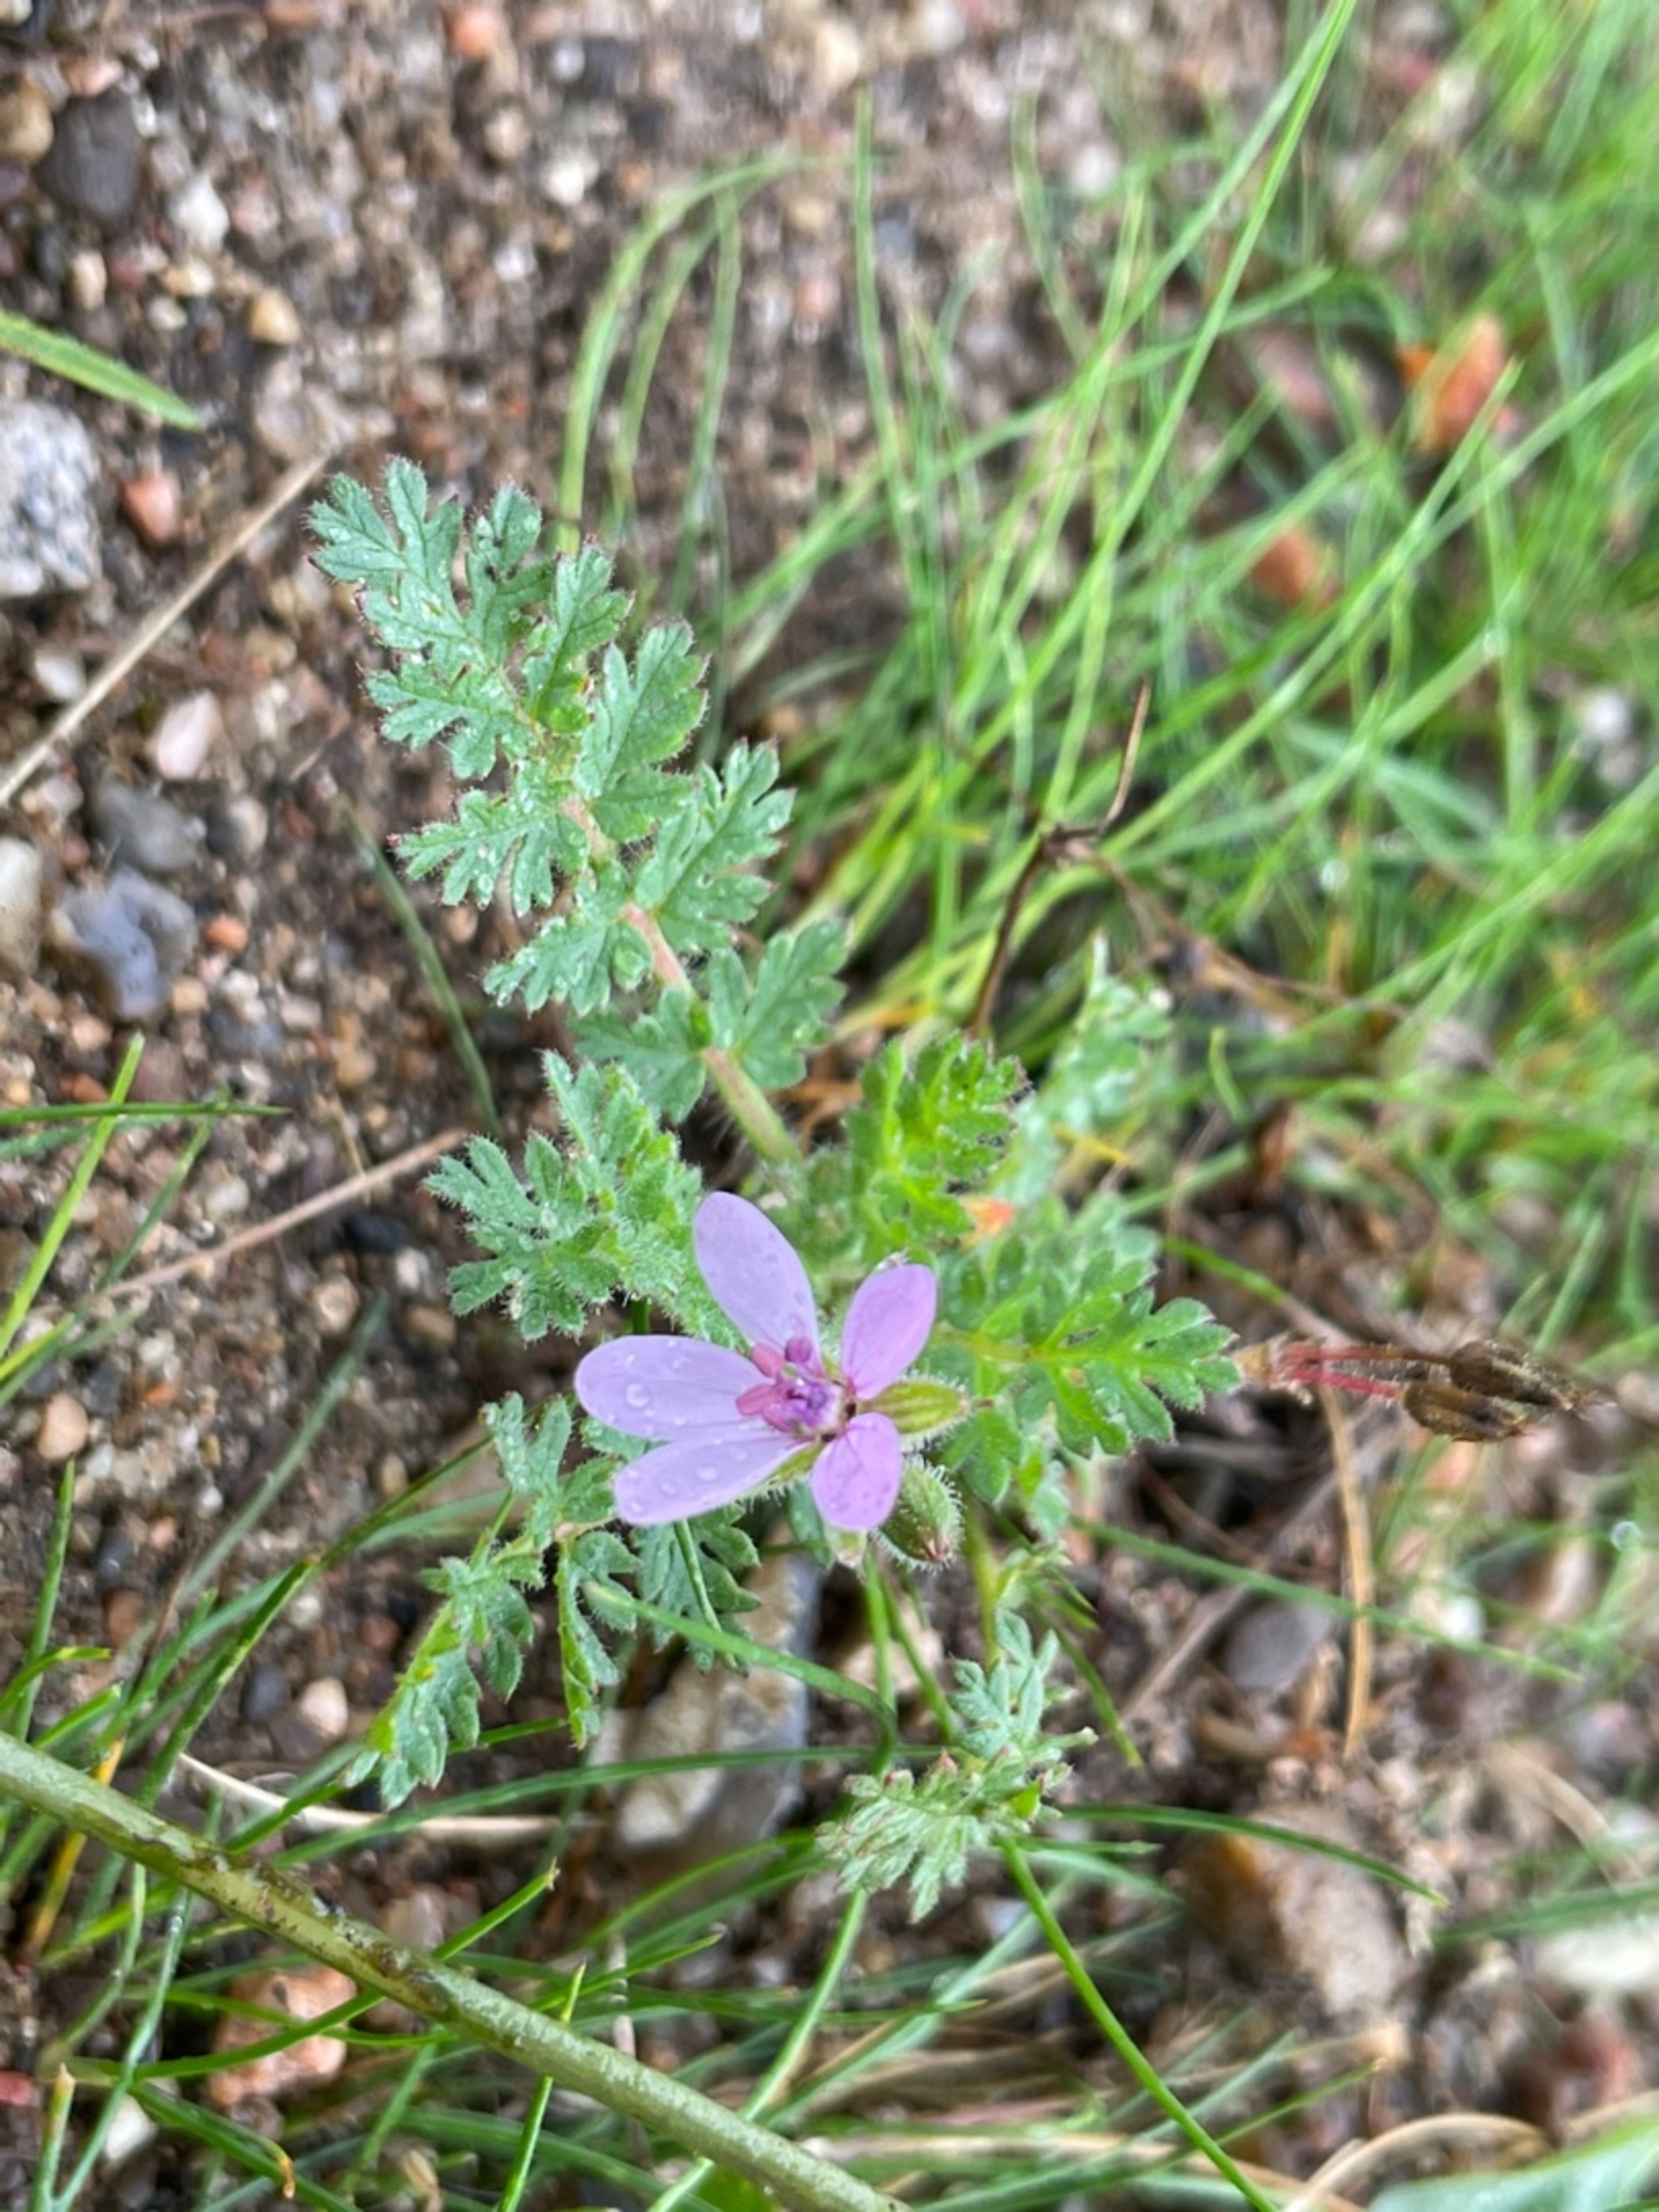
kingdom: Plantae
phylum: Tracheophyta
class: Magnoliopsida
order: Geraniales
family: Geraniaceae
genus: Erodium
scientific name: Erodium cicutarium
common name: Hejrenæb
